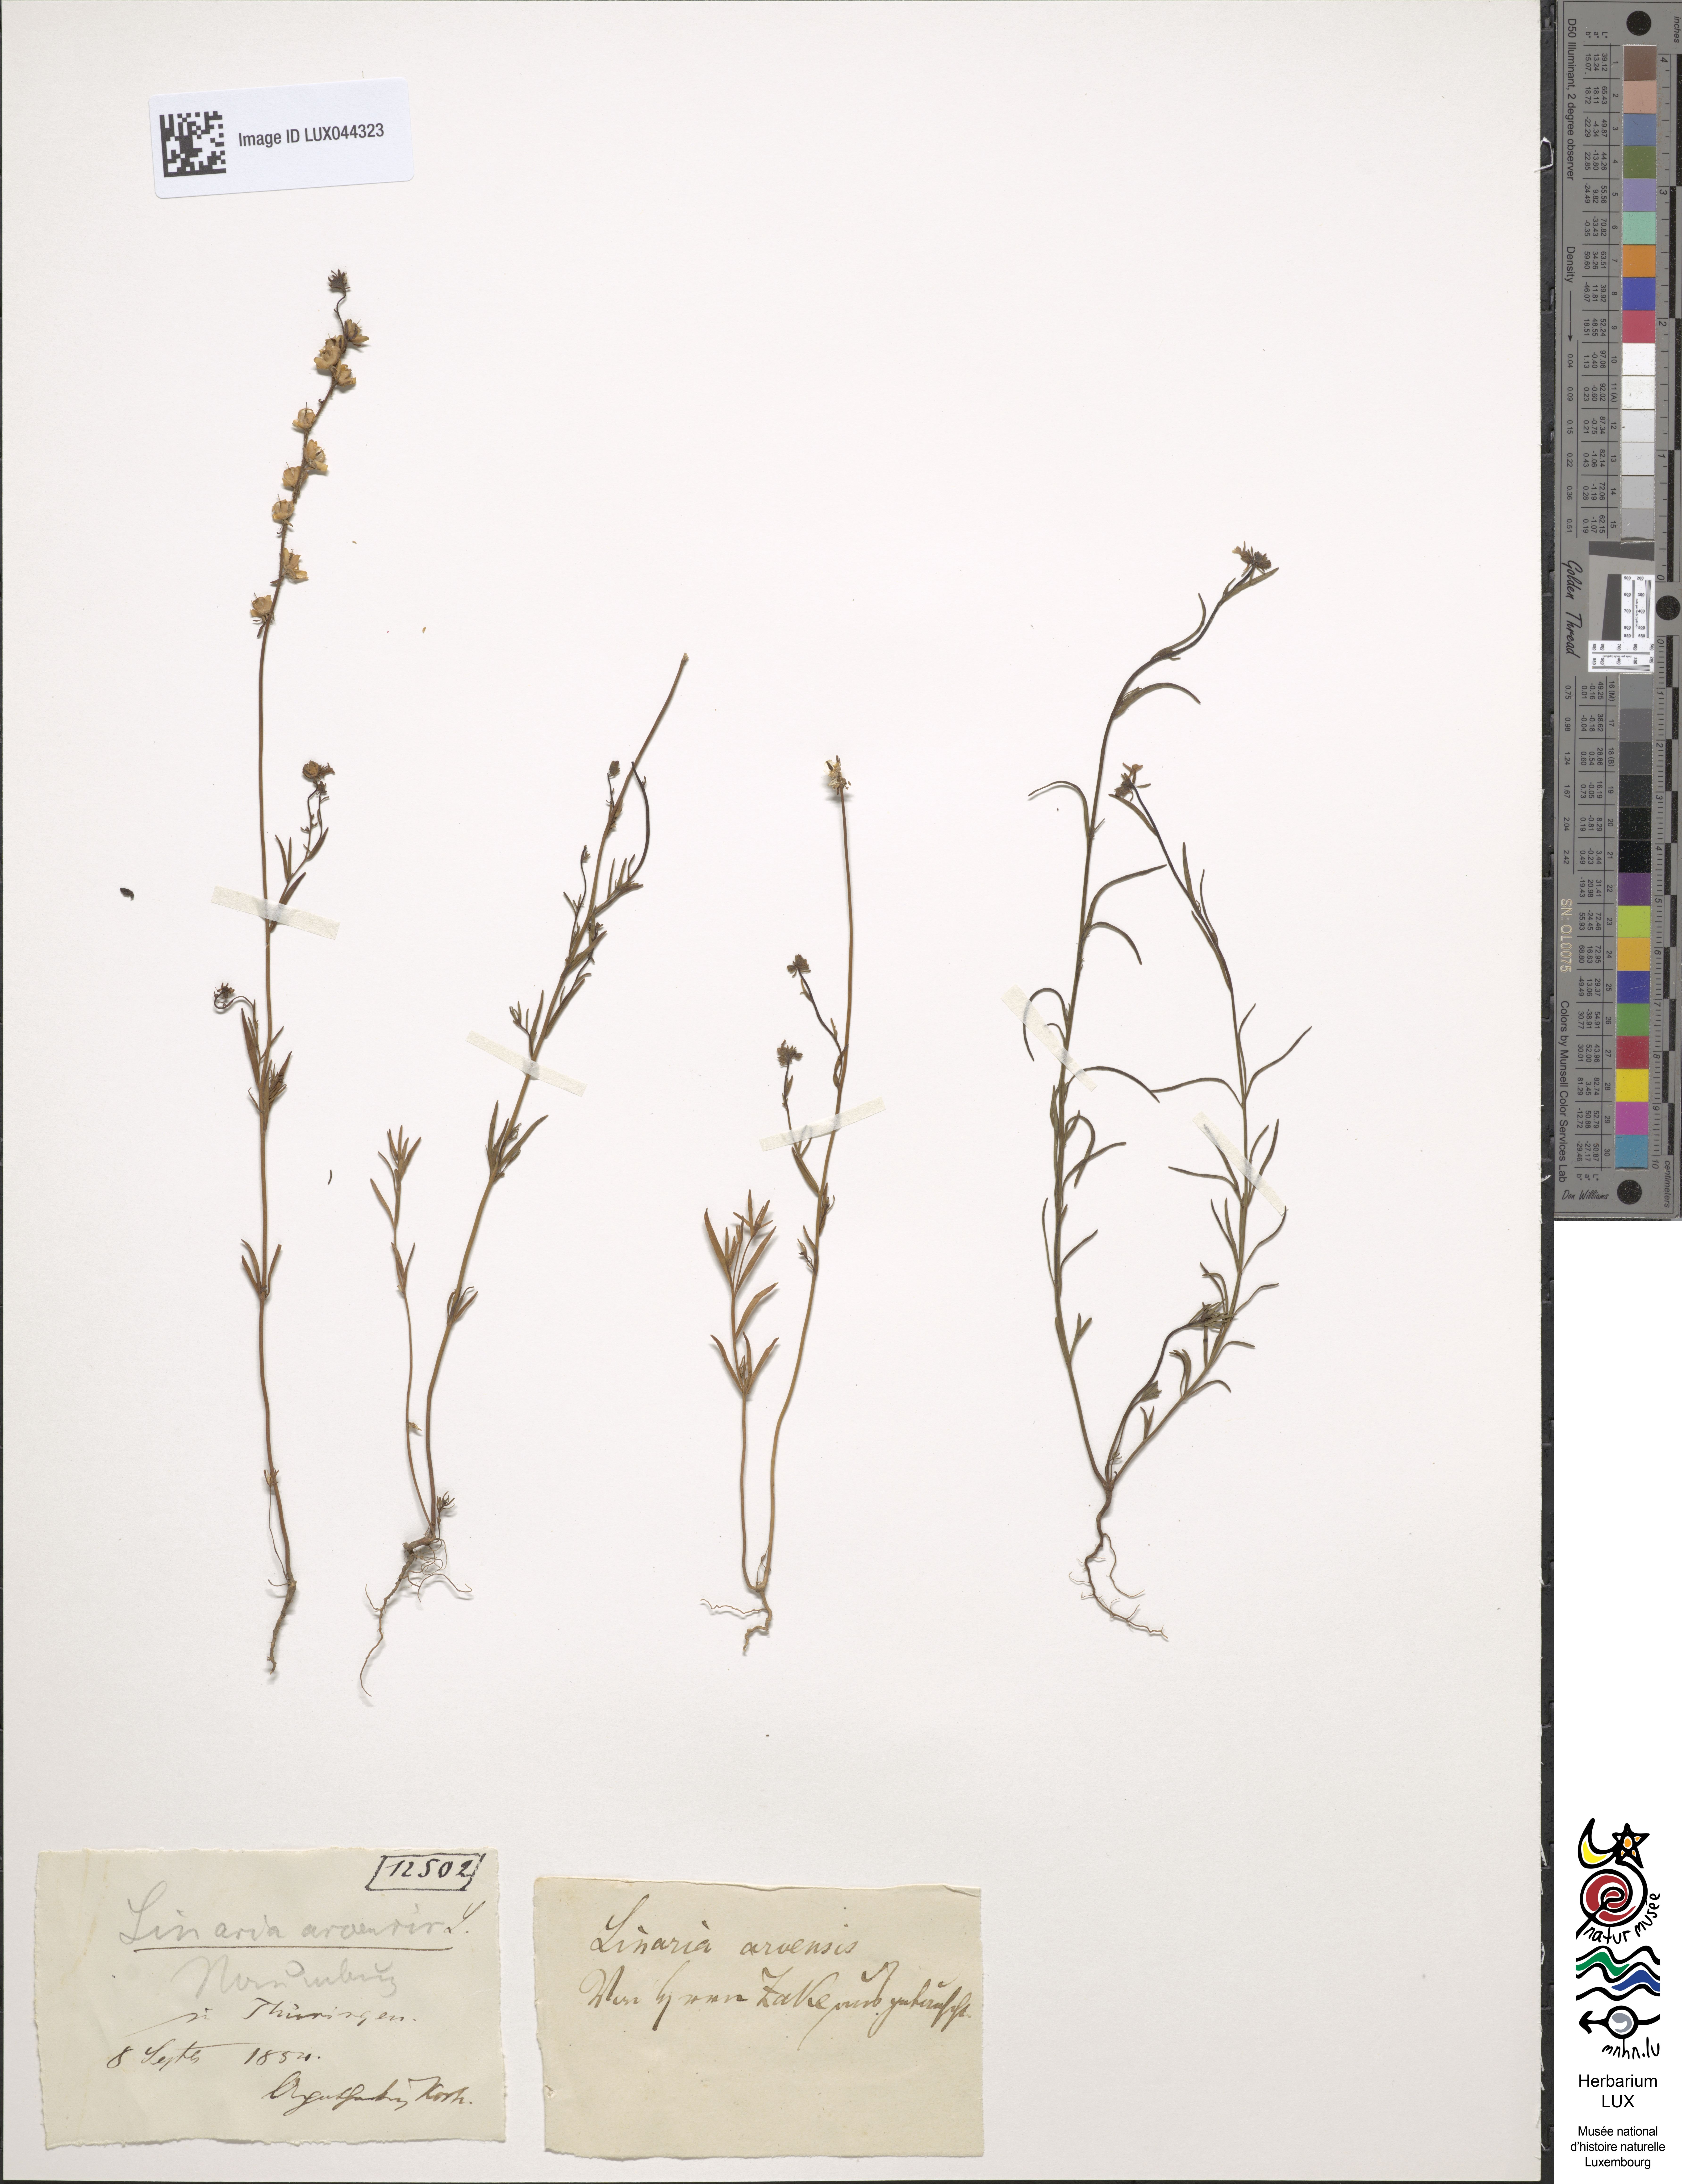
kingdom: Plantae
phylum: Tracheophyta
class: Magnoliopsida
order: Lamiales
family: Plantaginaceae
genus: Linaria
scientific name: Linaria arvensis
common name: Corn toadflax
